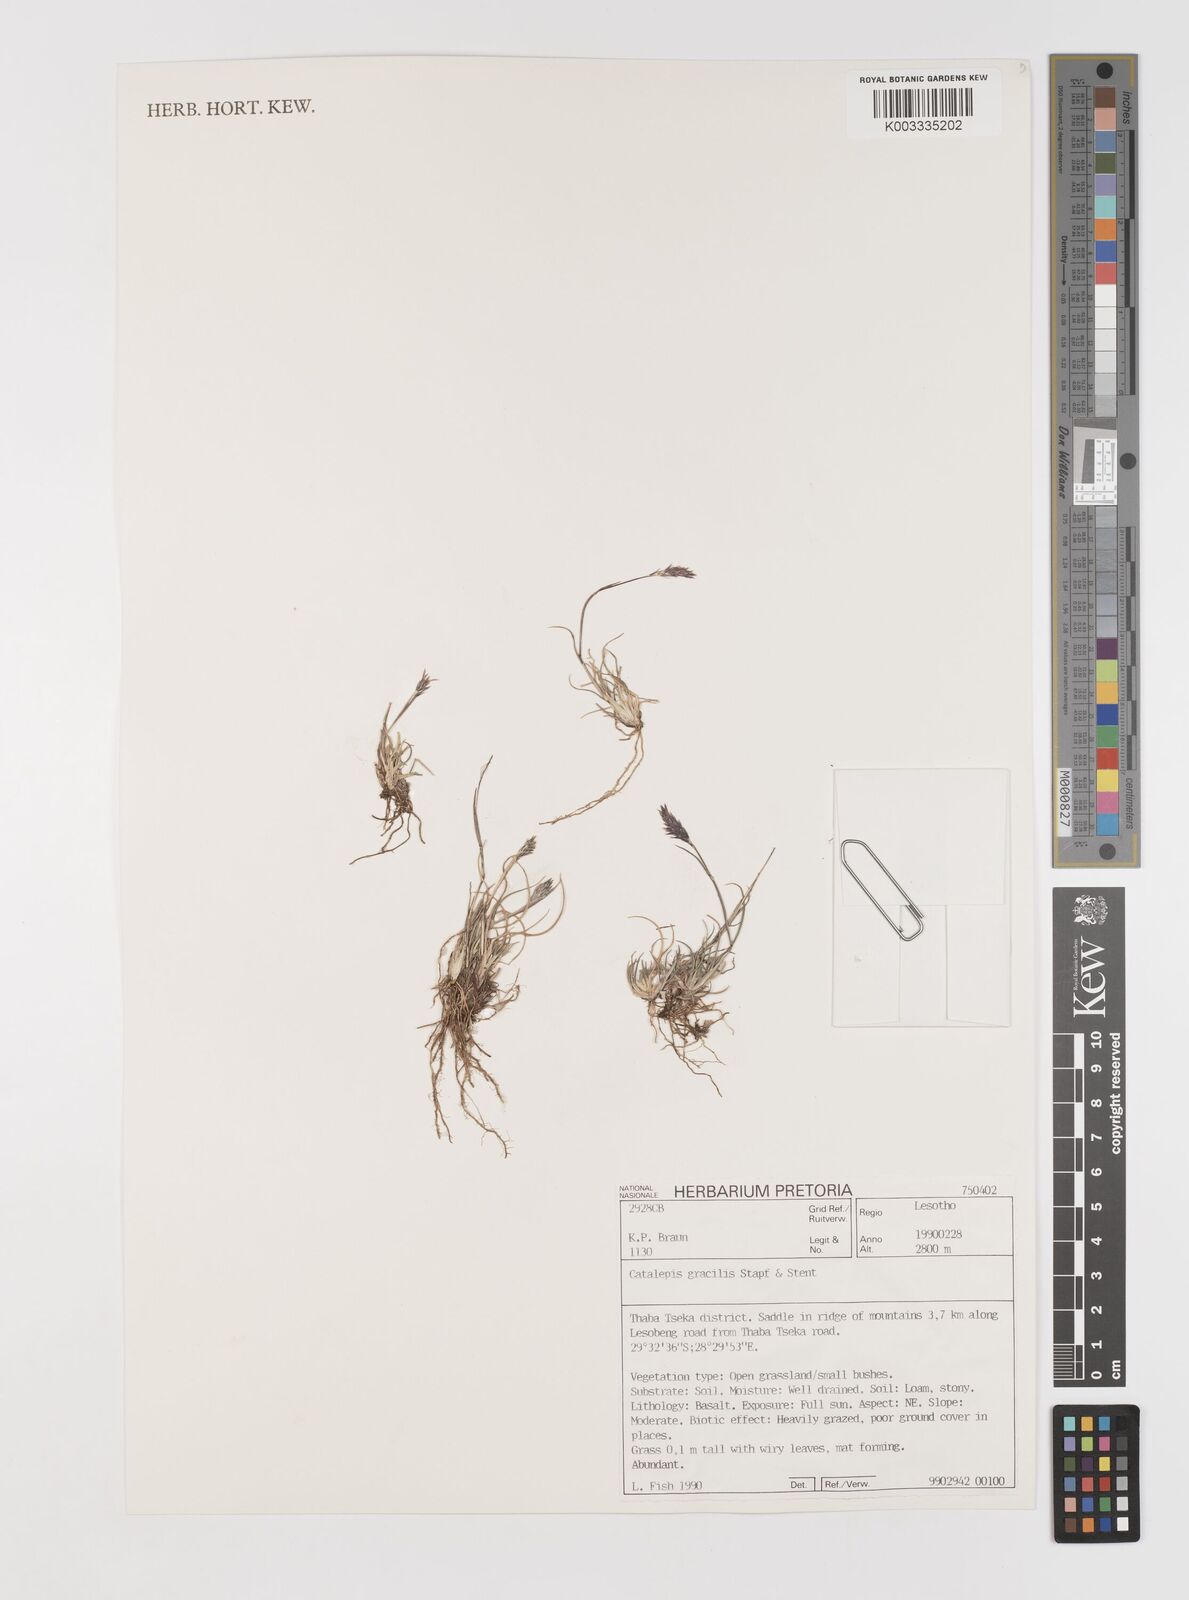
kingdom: Plantae
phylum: Tracheophyta
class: Liliopsida
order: Poales
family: Poaceae
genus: Catalepis
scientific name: Catalepis gracilis
